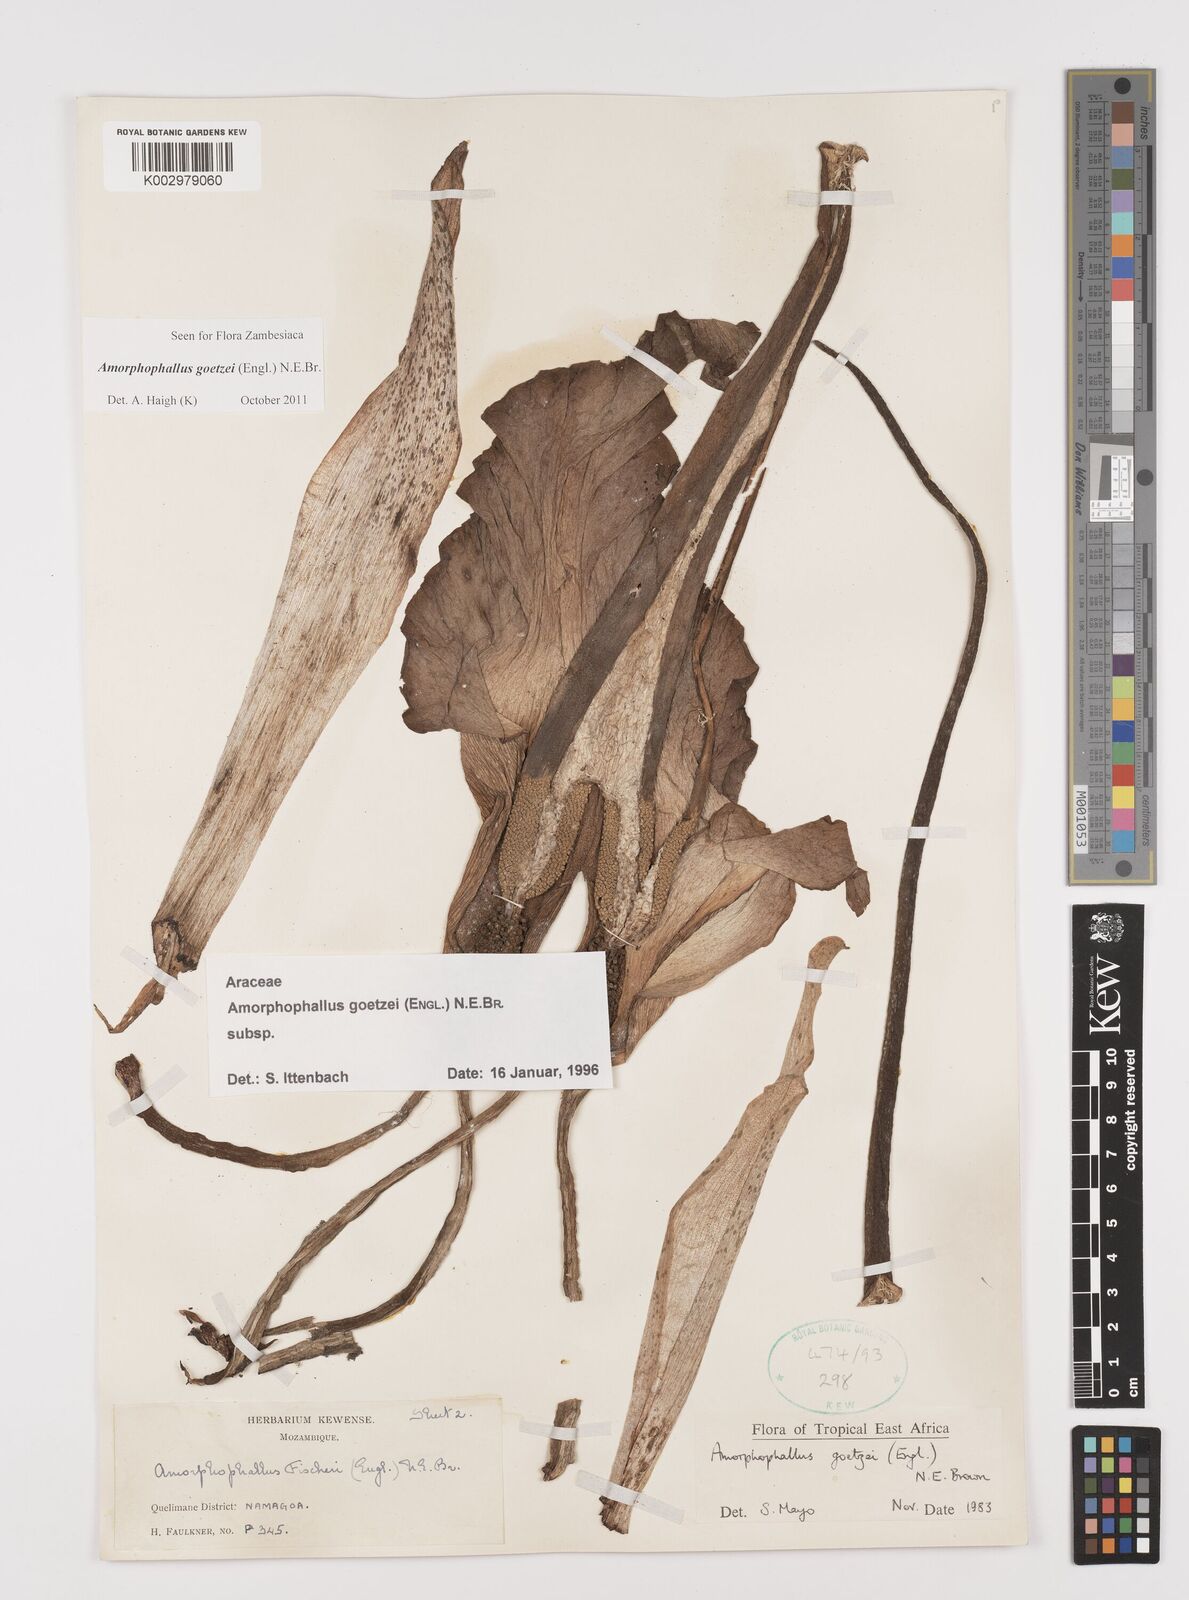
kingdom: Plantae
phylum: Tracheophyta
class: Liliopsida
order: Alismatales
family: Araceae
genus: Amorphophallus
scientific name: Amorphophallus goetzei
